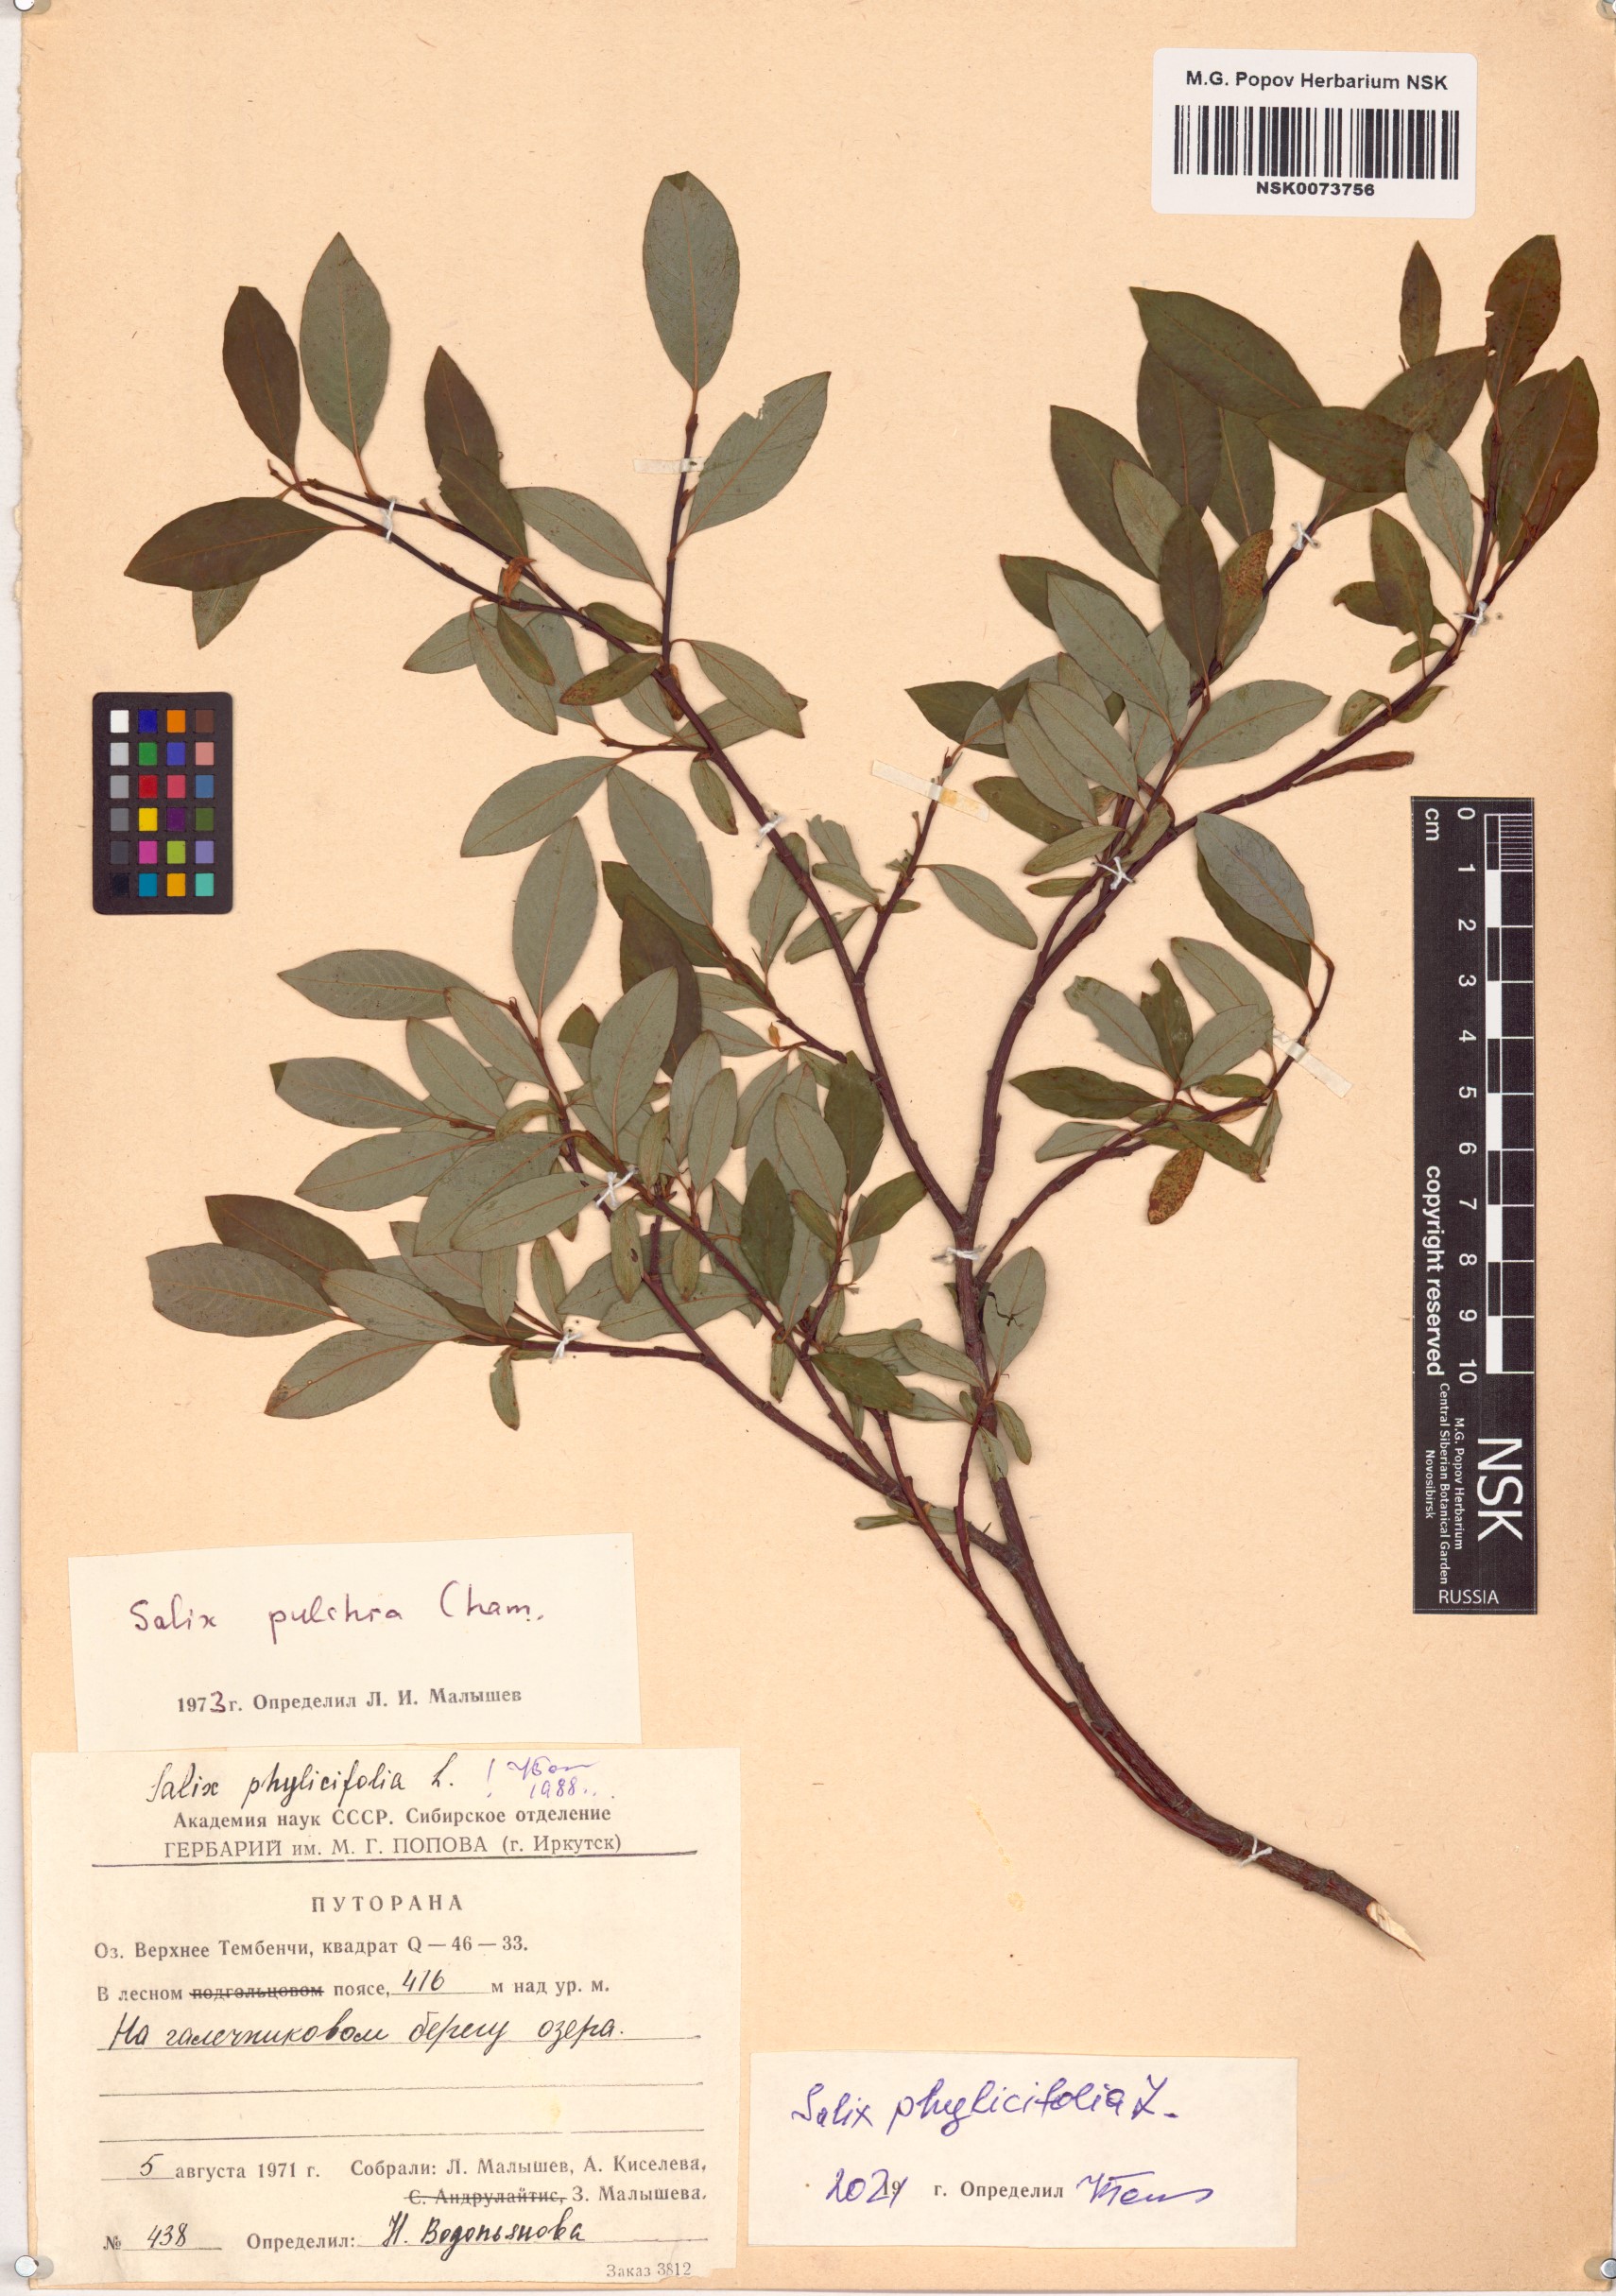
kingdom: Plantae
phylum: Tracheophyta
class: Magnoliopsida
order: Malpighiales
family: Salicaceae
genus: Salix
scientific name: Salix phylicifolia
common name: Tea-leaved willow
